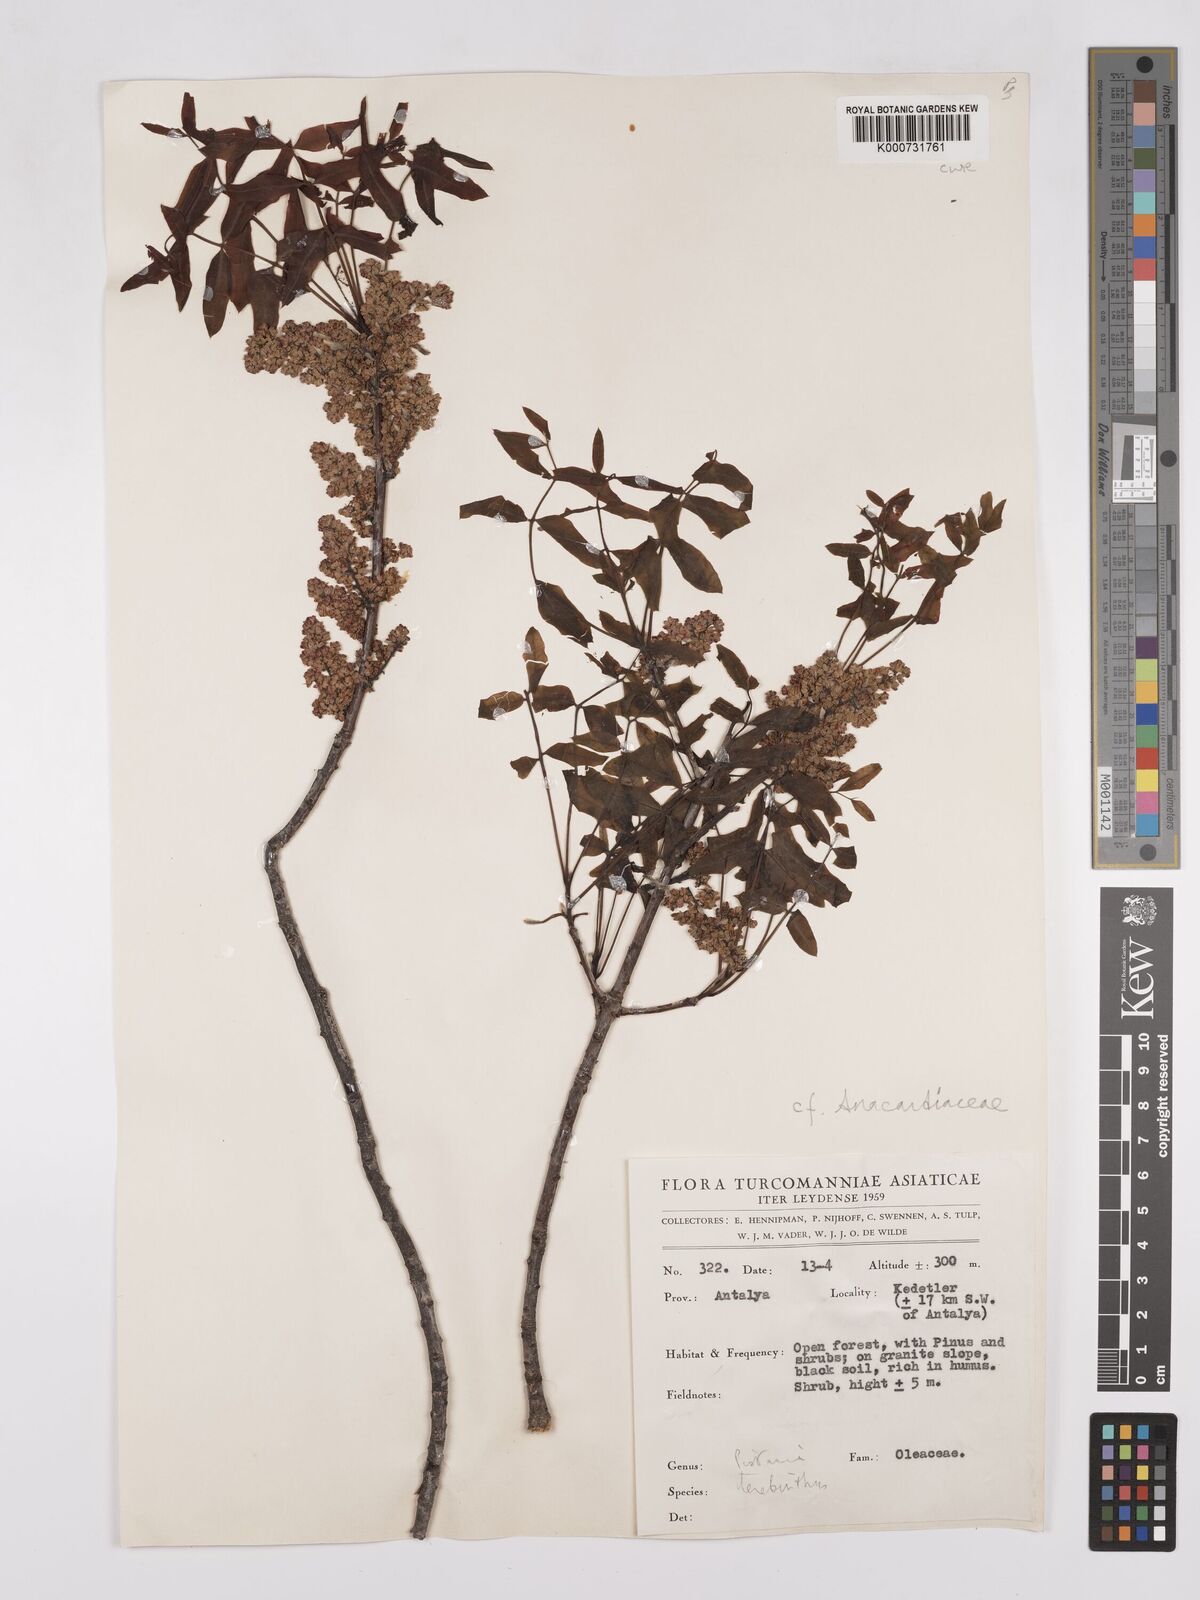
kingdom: Plantae
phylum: Tracheophyta
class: Magnoliopsida
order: Sapindales
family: Anacardiaceae
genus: Pistacia
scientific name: Pistacia terebinthus
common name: Terebinth
